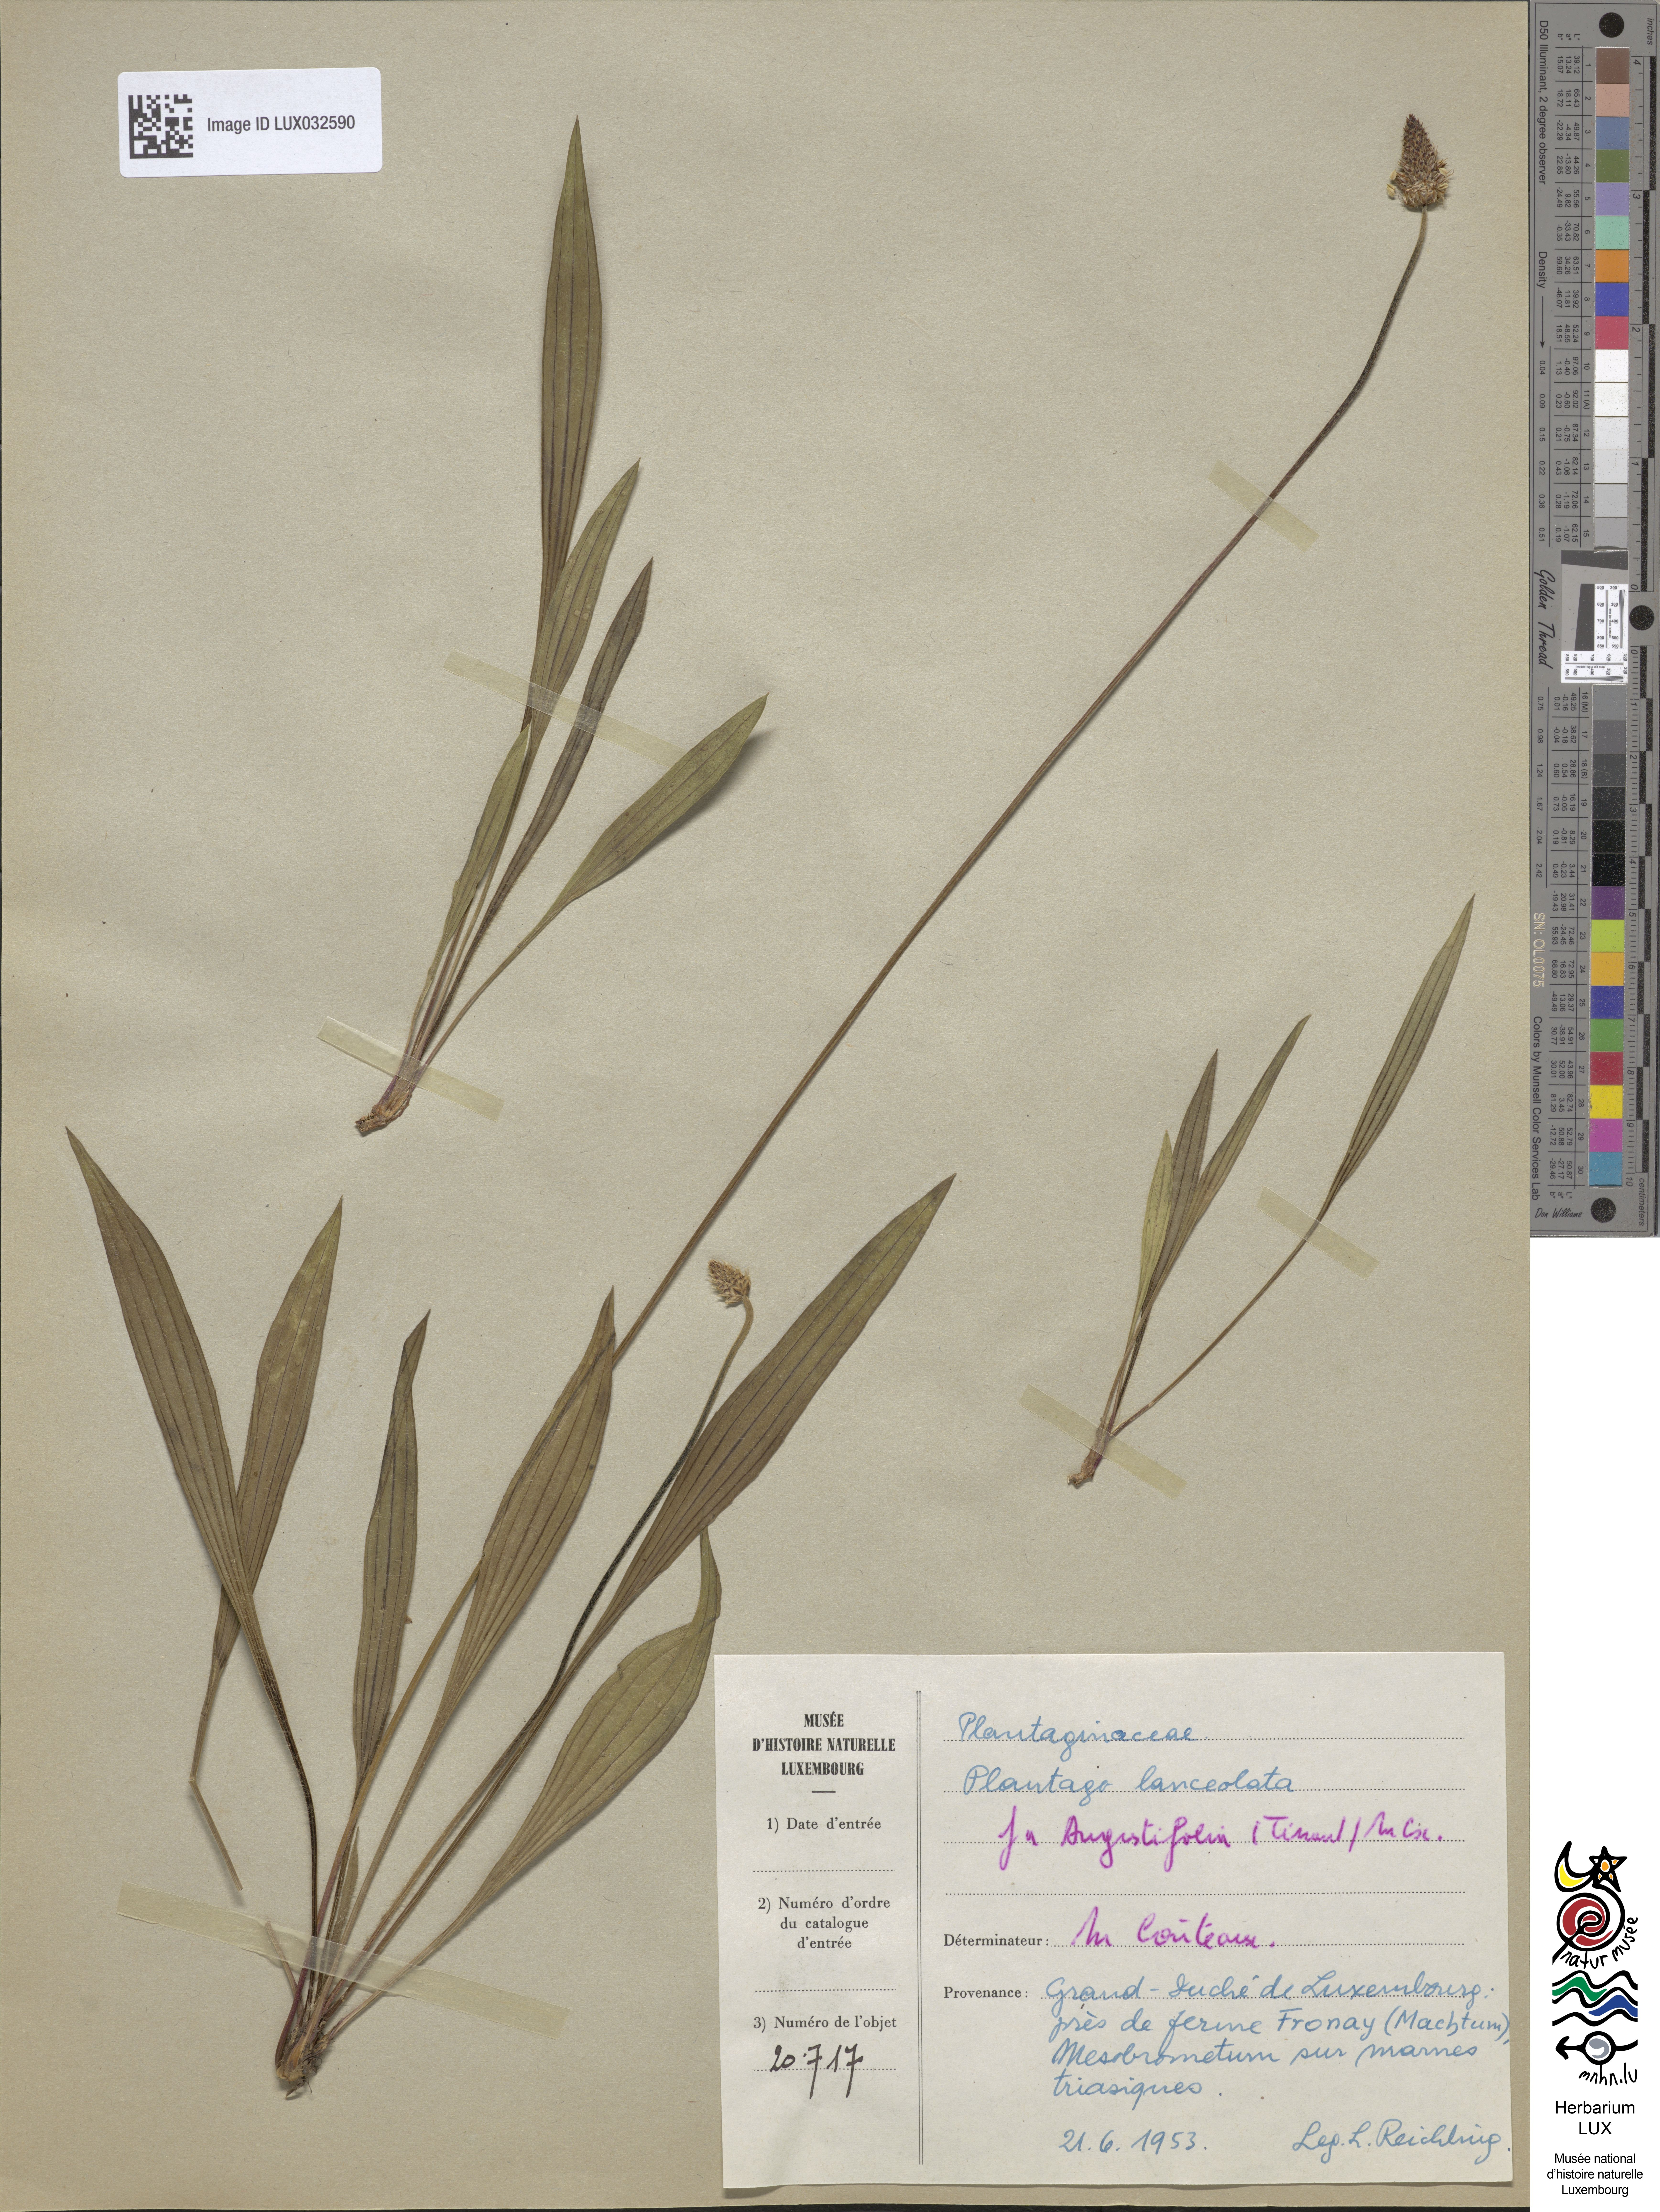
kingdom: Plantae
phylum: Tracheophyta
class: Magnoliopsida
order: Lamiales
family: Plantaginaceae
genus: Plantago
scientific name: Plantago lanceolata
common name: Ribwort plantain
